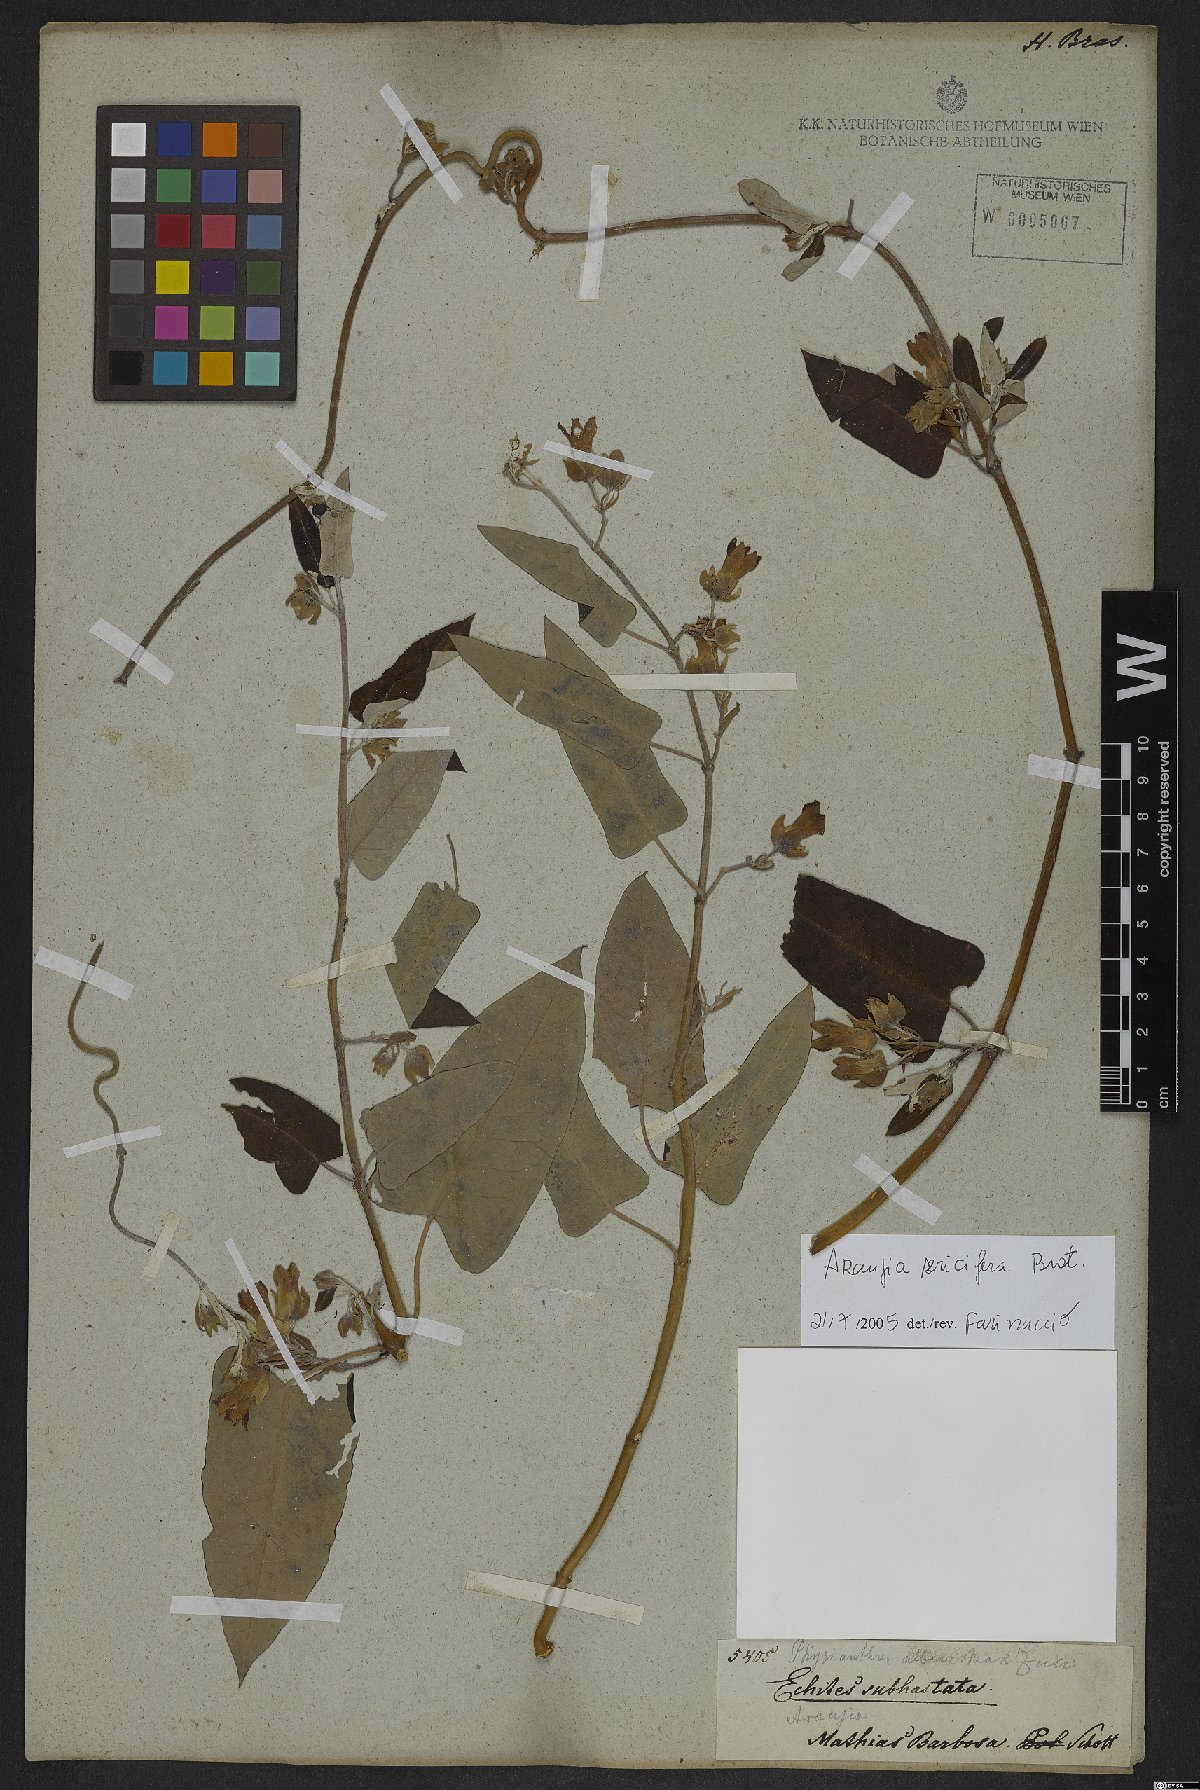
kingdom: Plantae
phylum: Tracheophyta
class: Magnoliopsida
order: Gentianales
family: Apocynaceae
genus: Araujia
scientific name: Araujia sericifera
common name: White bladderflower
